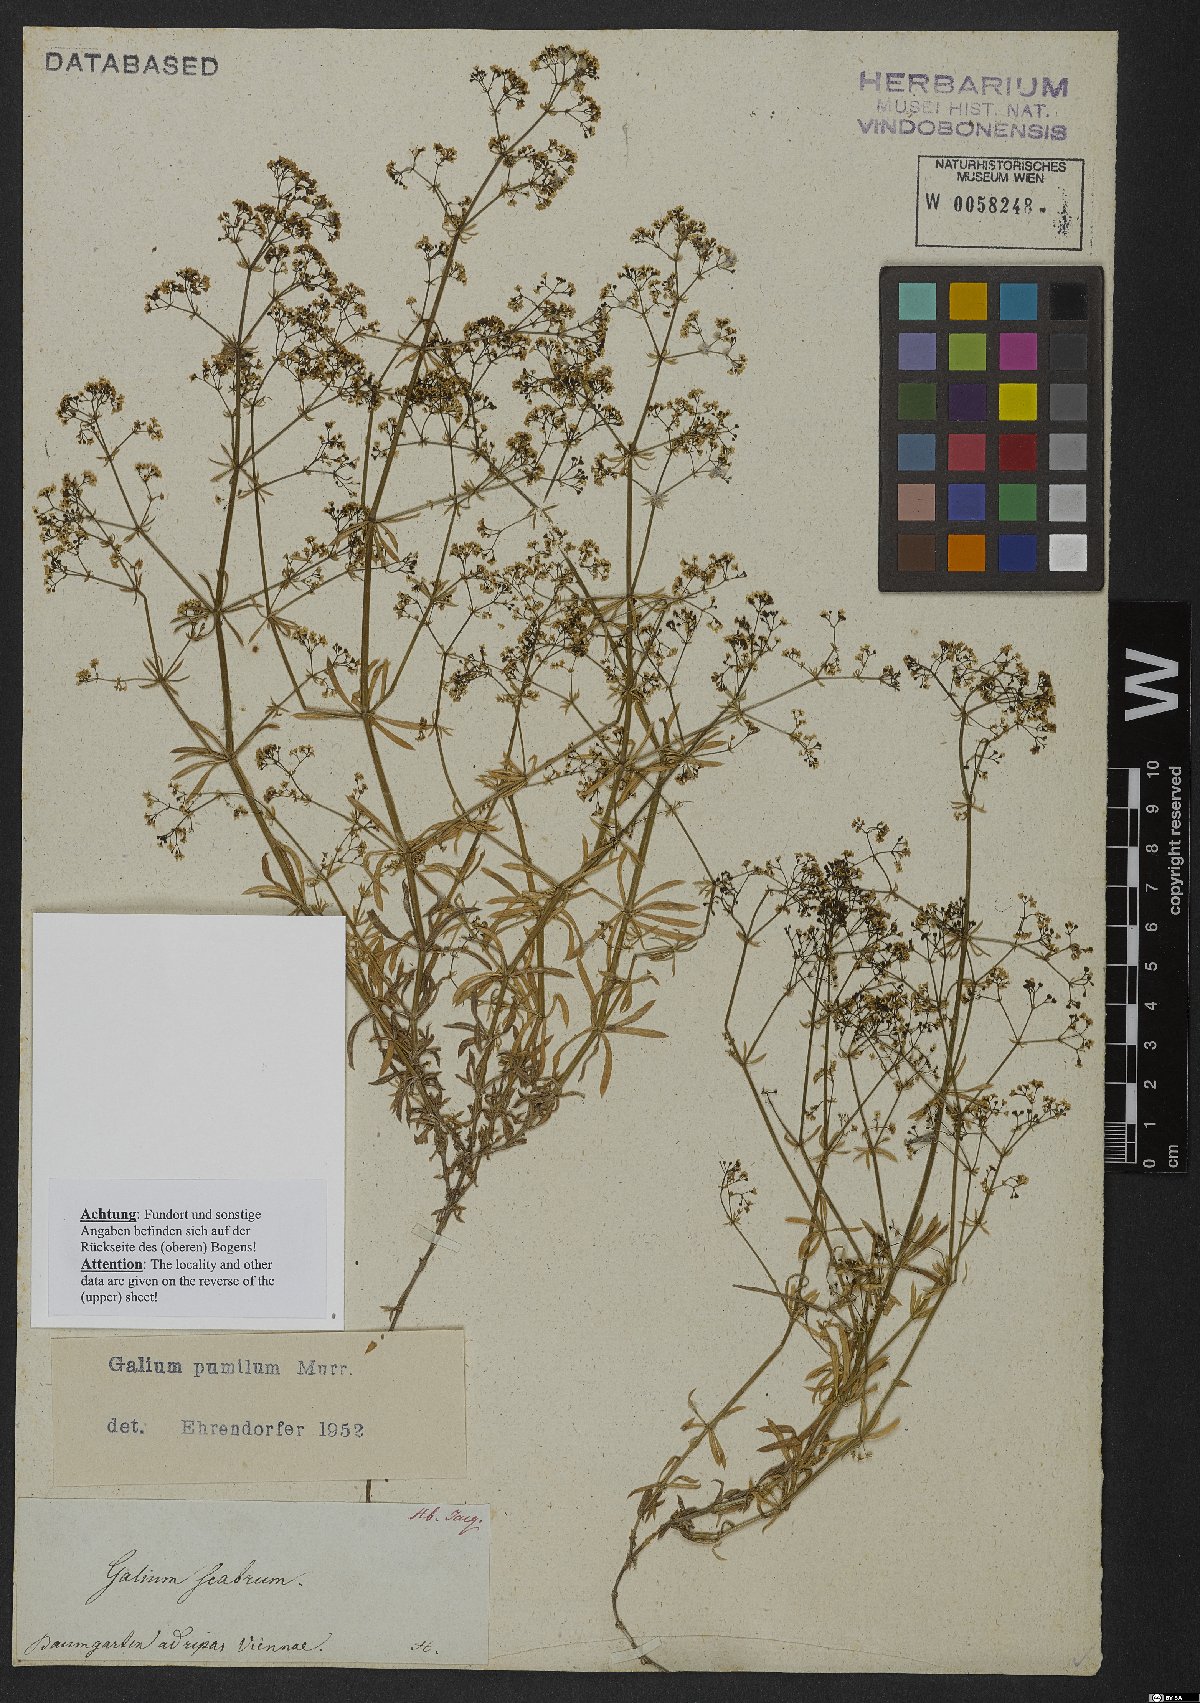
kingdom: Plantae
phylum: Tracheophyta
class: Magnoliopsida
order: Gentianales
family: Rubiaceae
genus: Galium
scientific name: Galium pumilum
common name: Slender bedstraw
